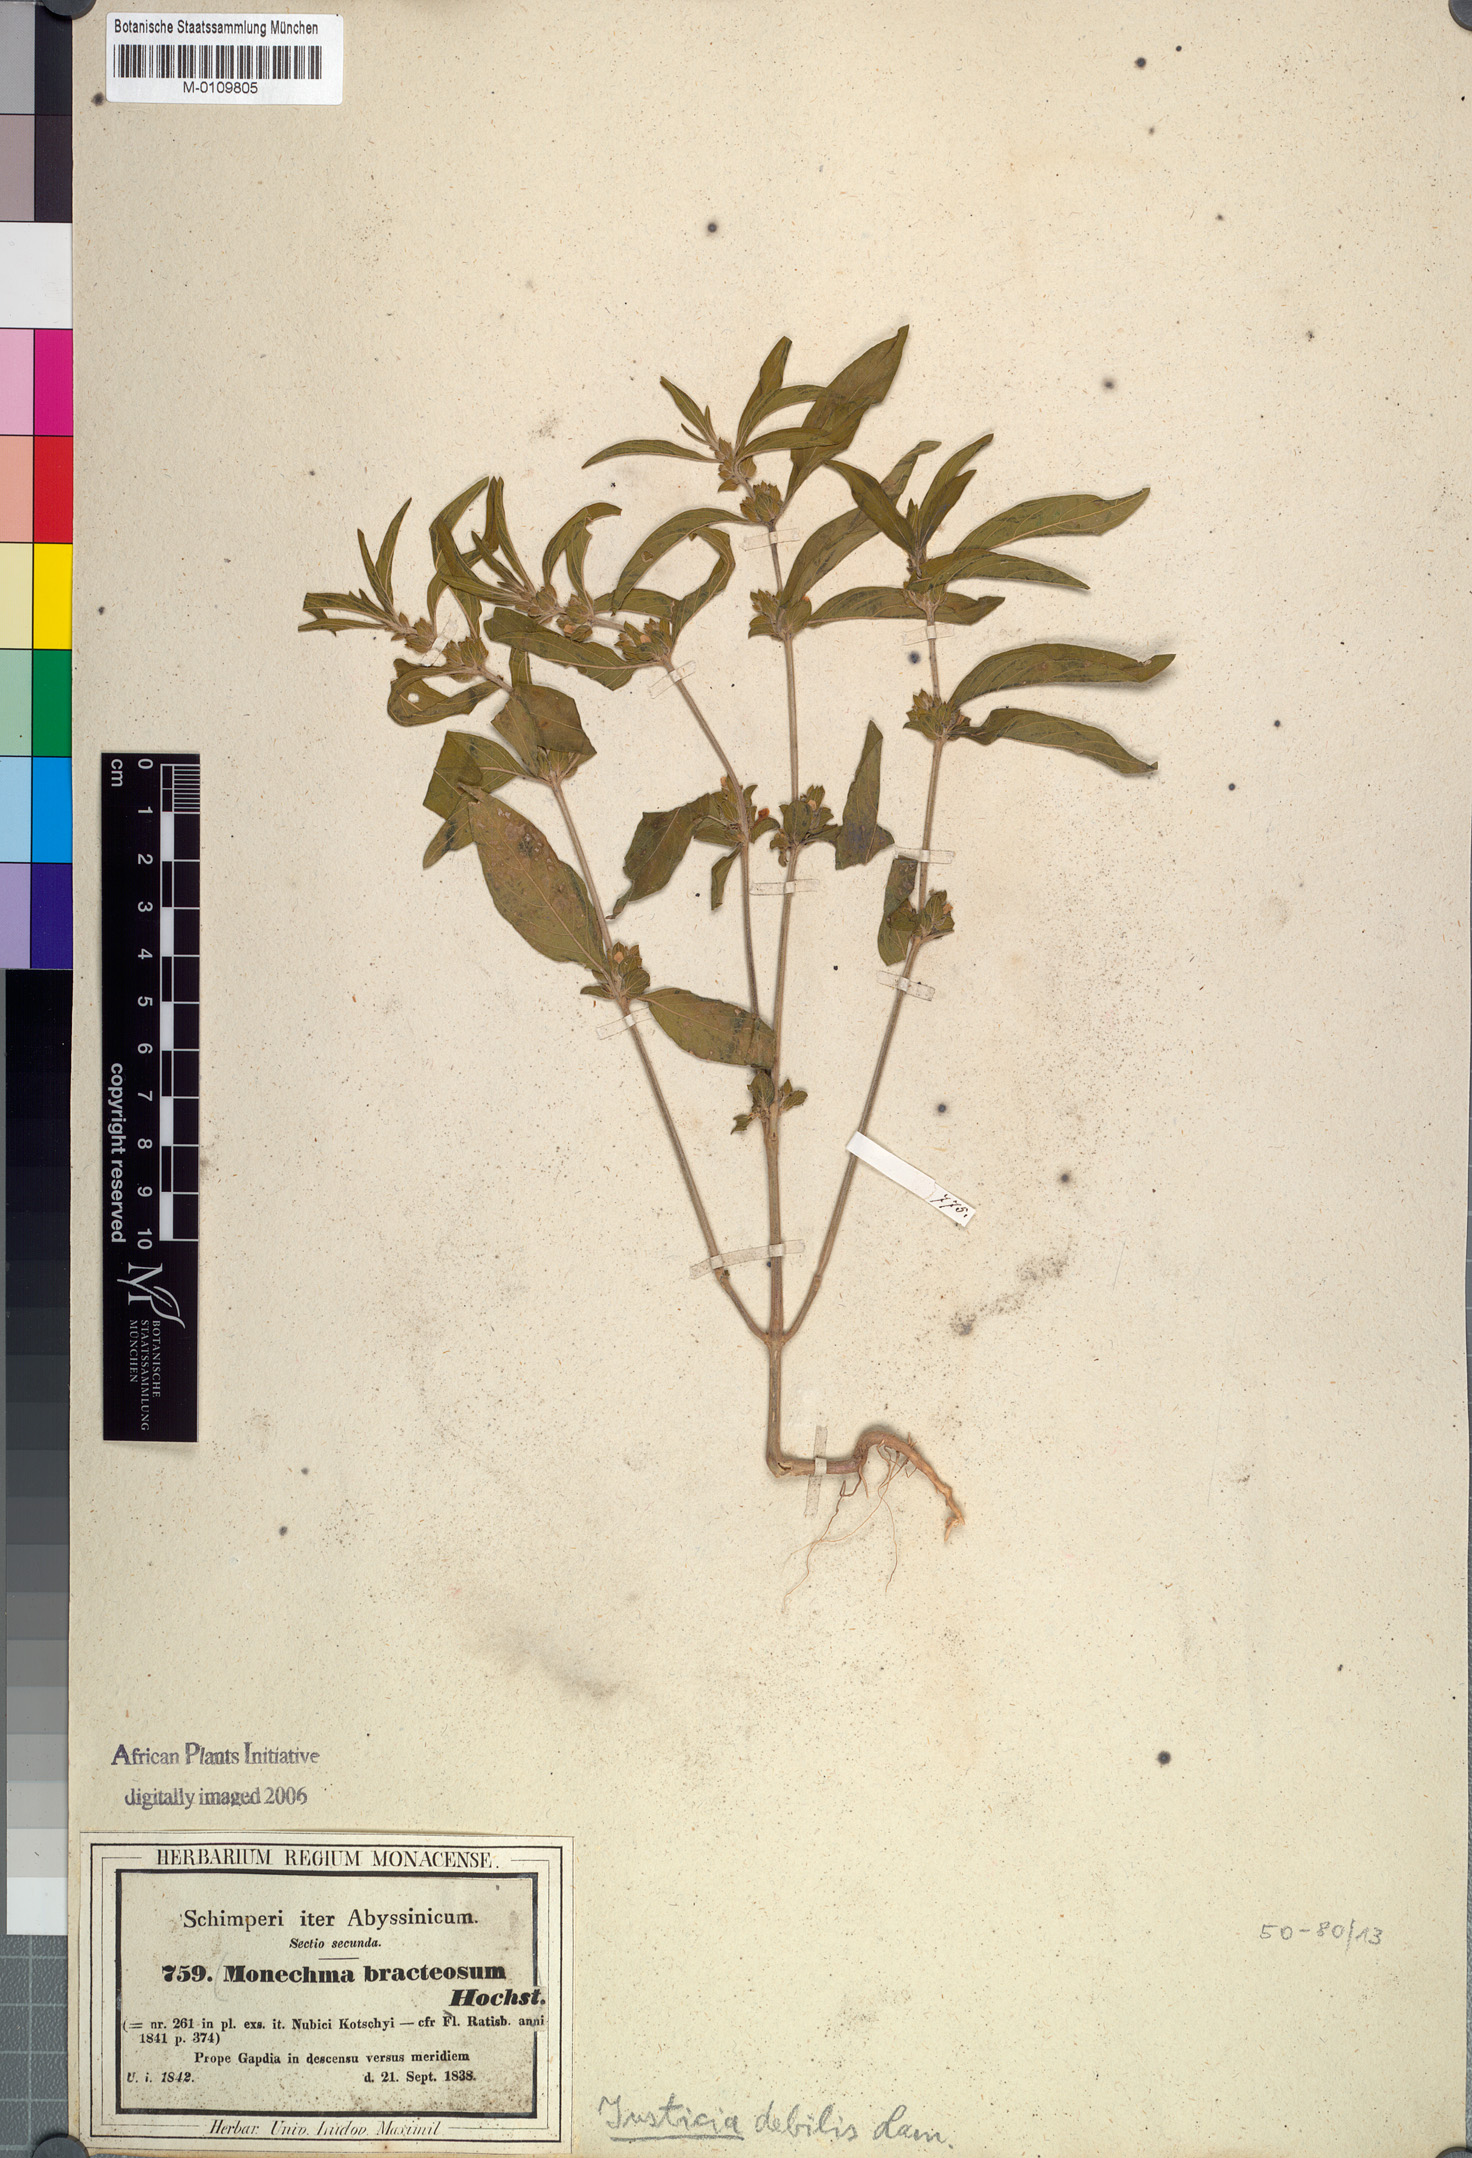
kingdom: Plantae
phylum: Tracheophyta
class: Magnoliopsida
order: Lamiales
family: Acanthaceae
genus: Monechma
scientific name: Monechma debile
